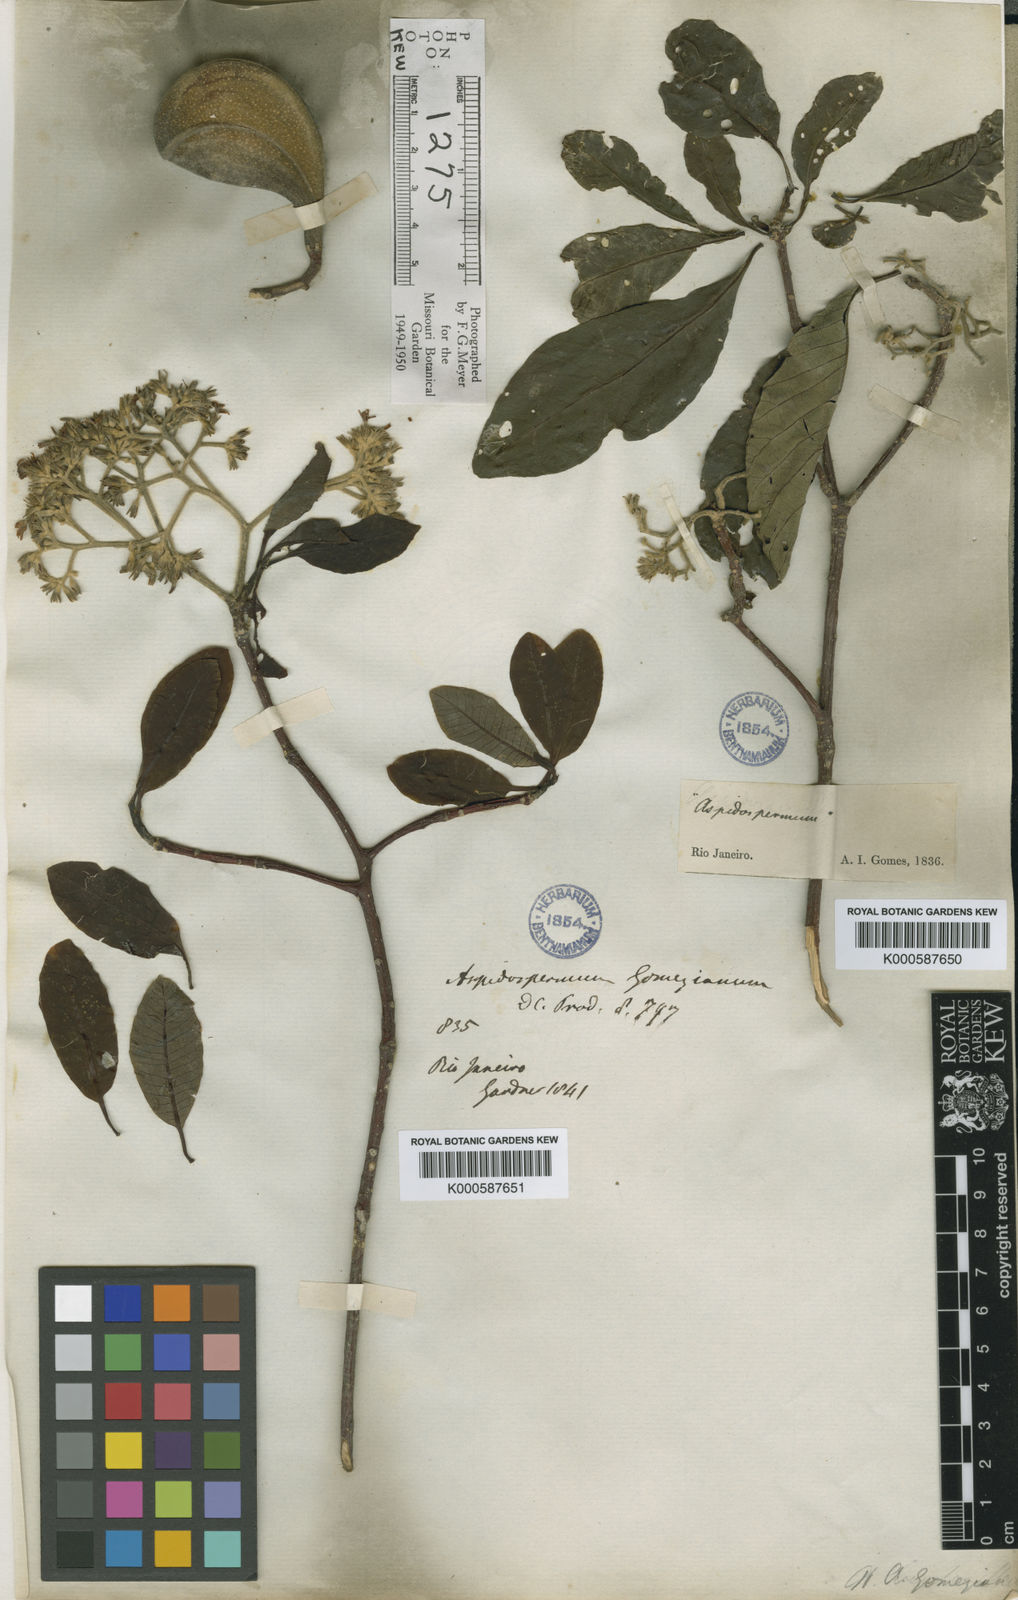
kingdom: Plantae
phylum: Tracheophyta
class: Magnoliopsida
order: Gentianales
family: Apocynaceae
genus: Aspidosperma
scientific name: Aspidosperma tomentosum
